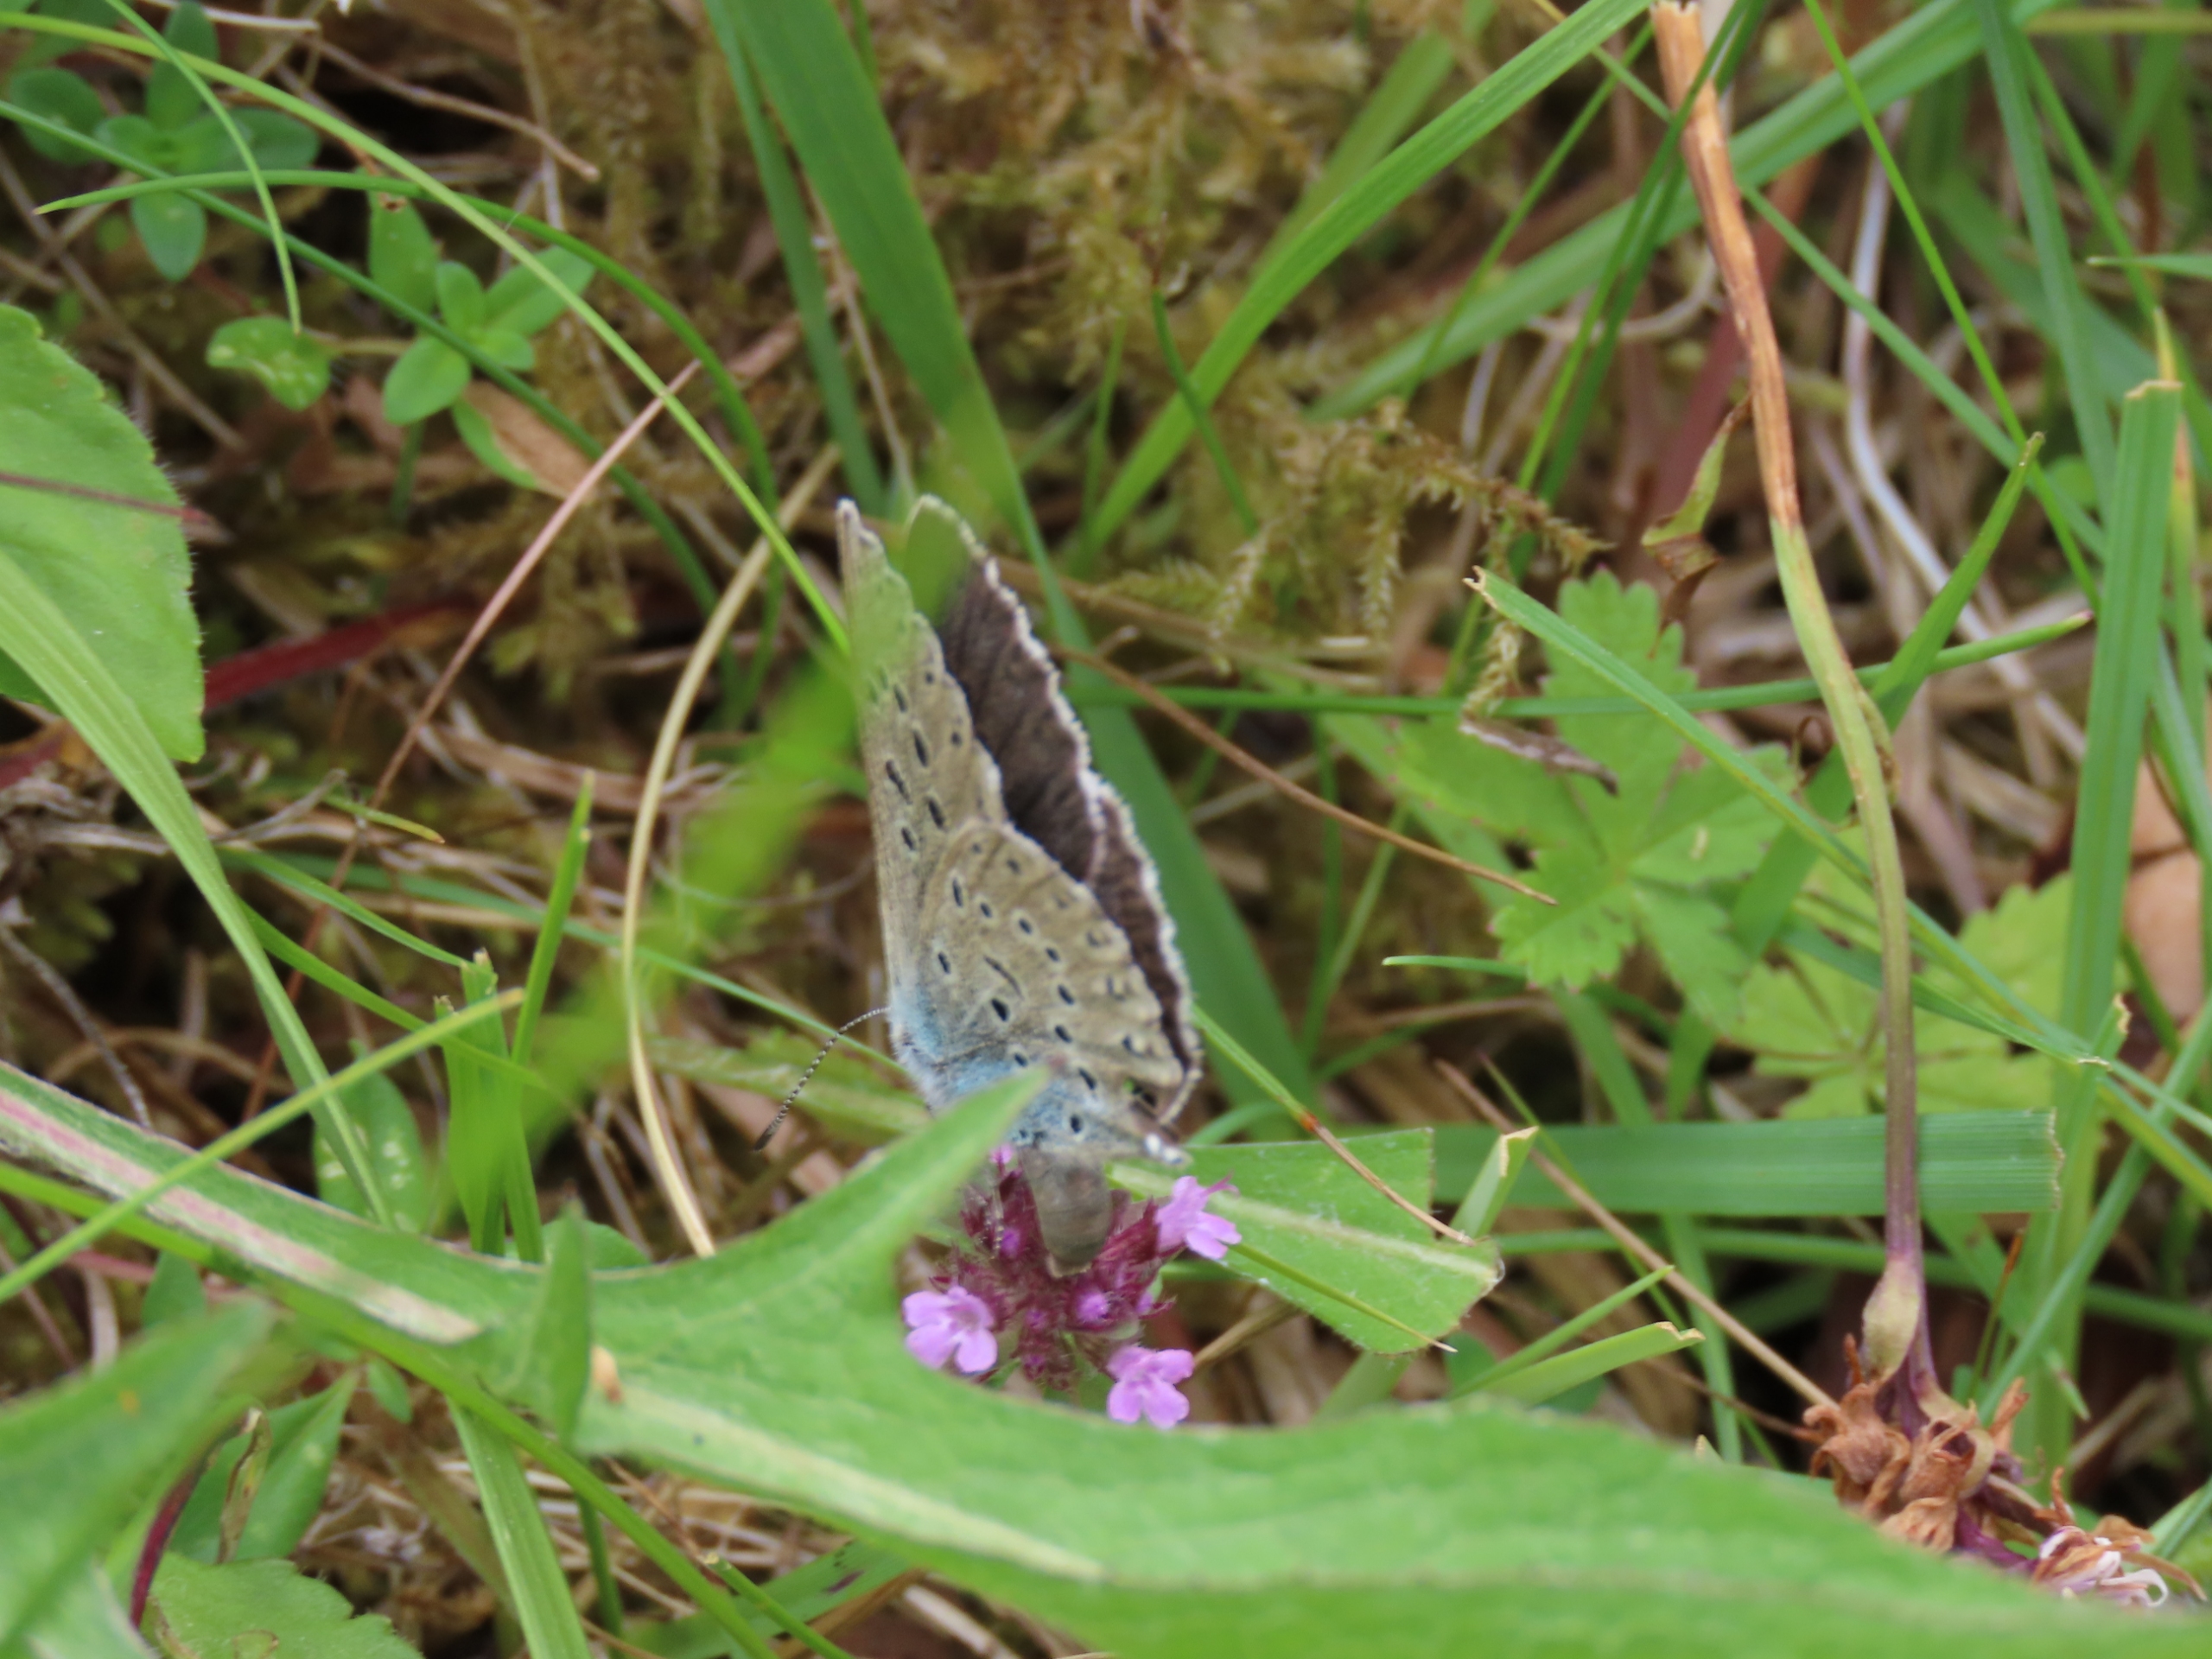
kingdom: Animalia
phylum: Arthropoda
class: Insecta
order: Lepidoptera
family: Lycaenidae
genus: Maculinea
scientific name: Maculinea arion
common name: Sortplettet blåfugl
